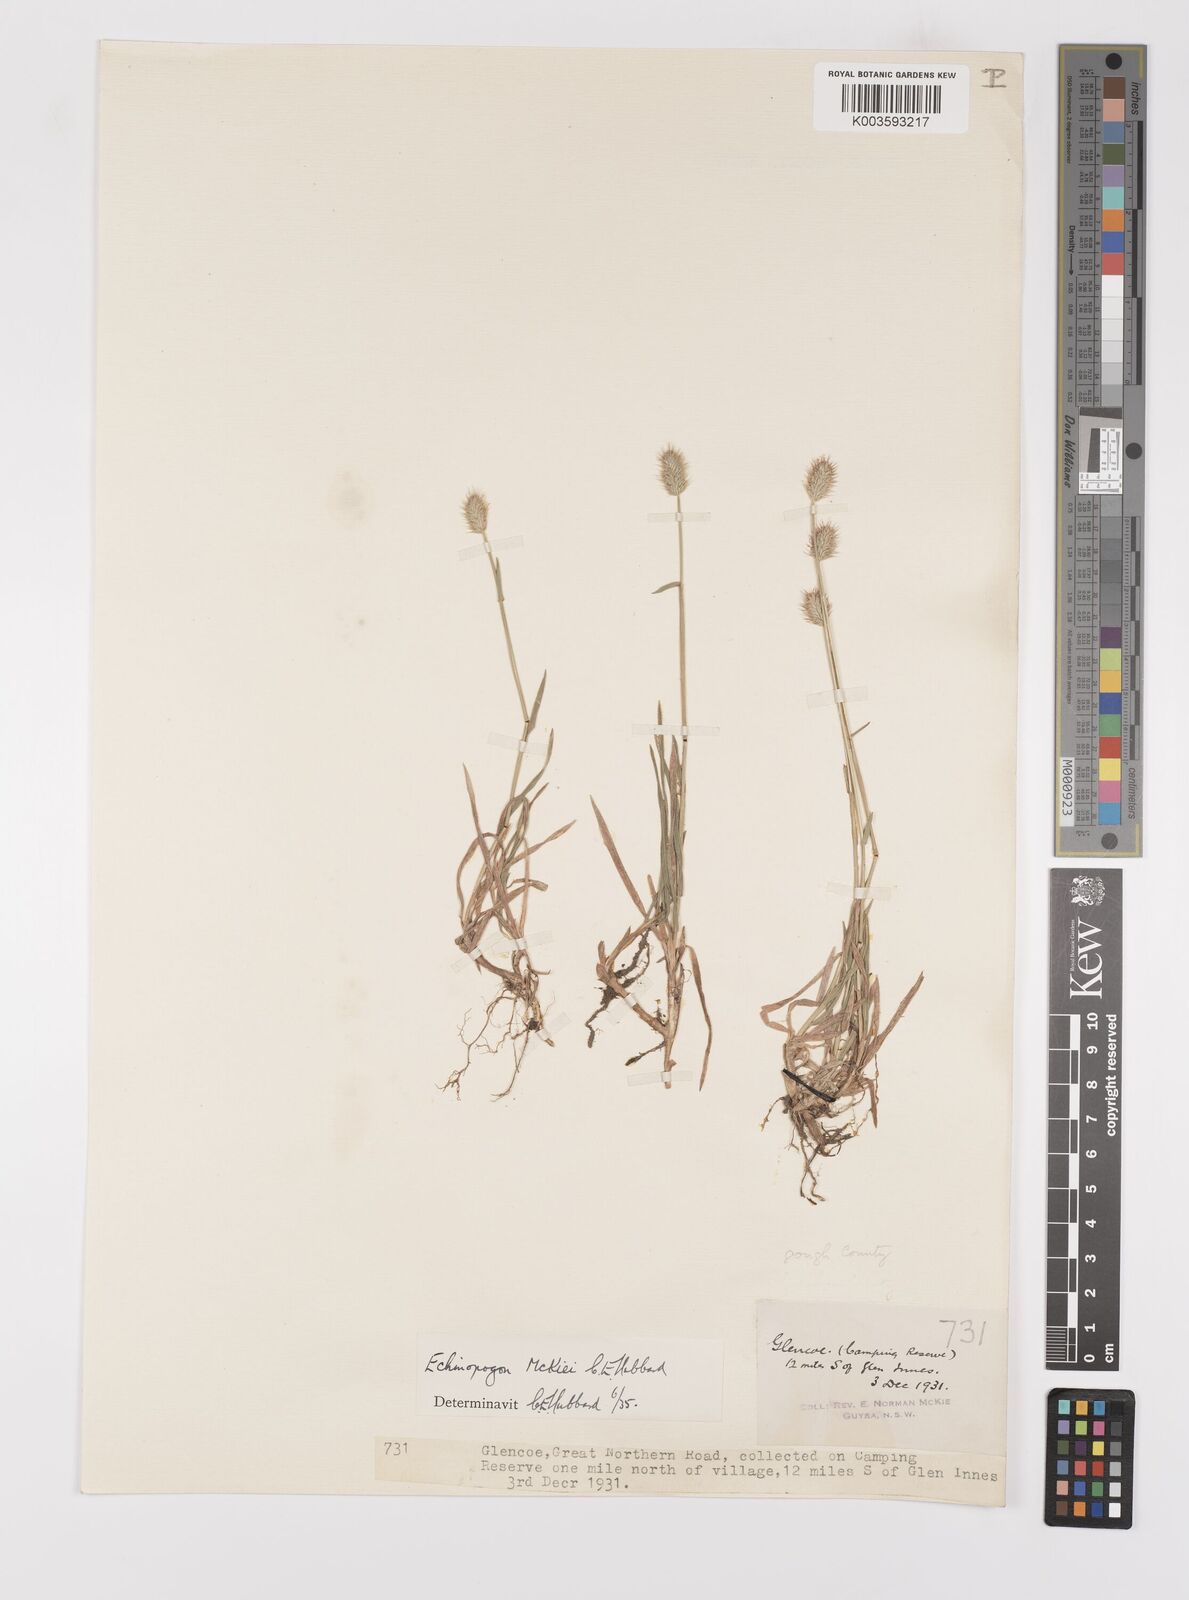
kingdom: Plantae
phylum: Tracheophyta
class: Liliopsida
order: Poales
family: Poaceae
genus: Echinopogon
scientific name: Echinopogon mckiei
